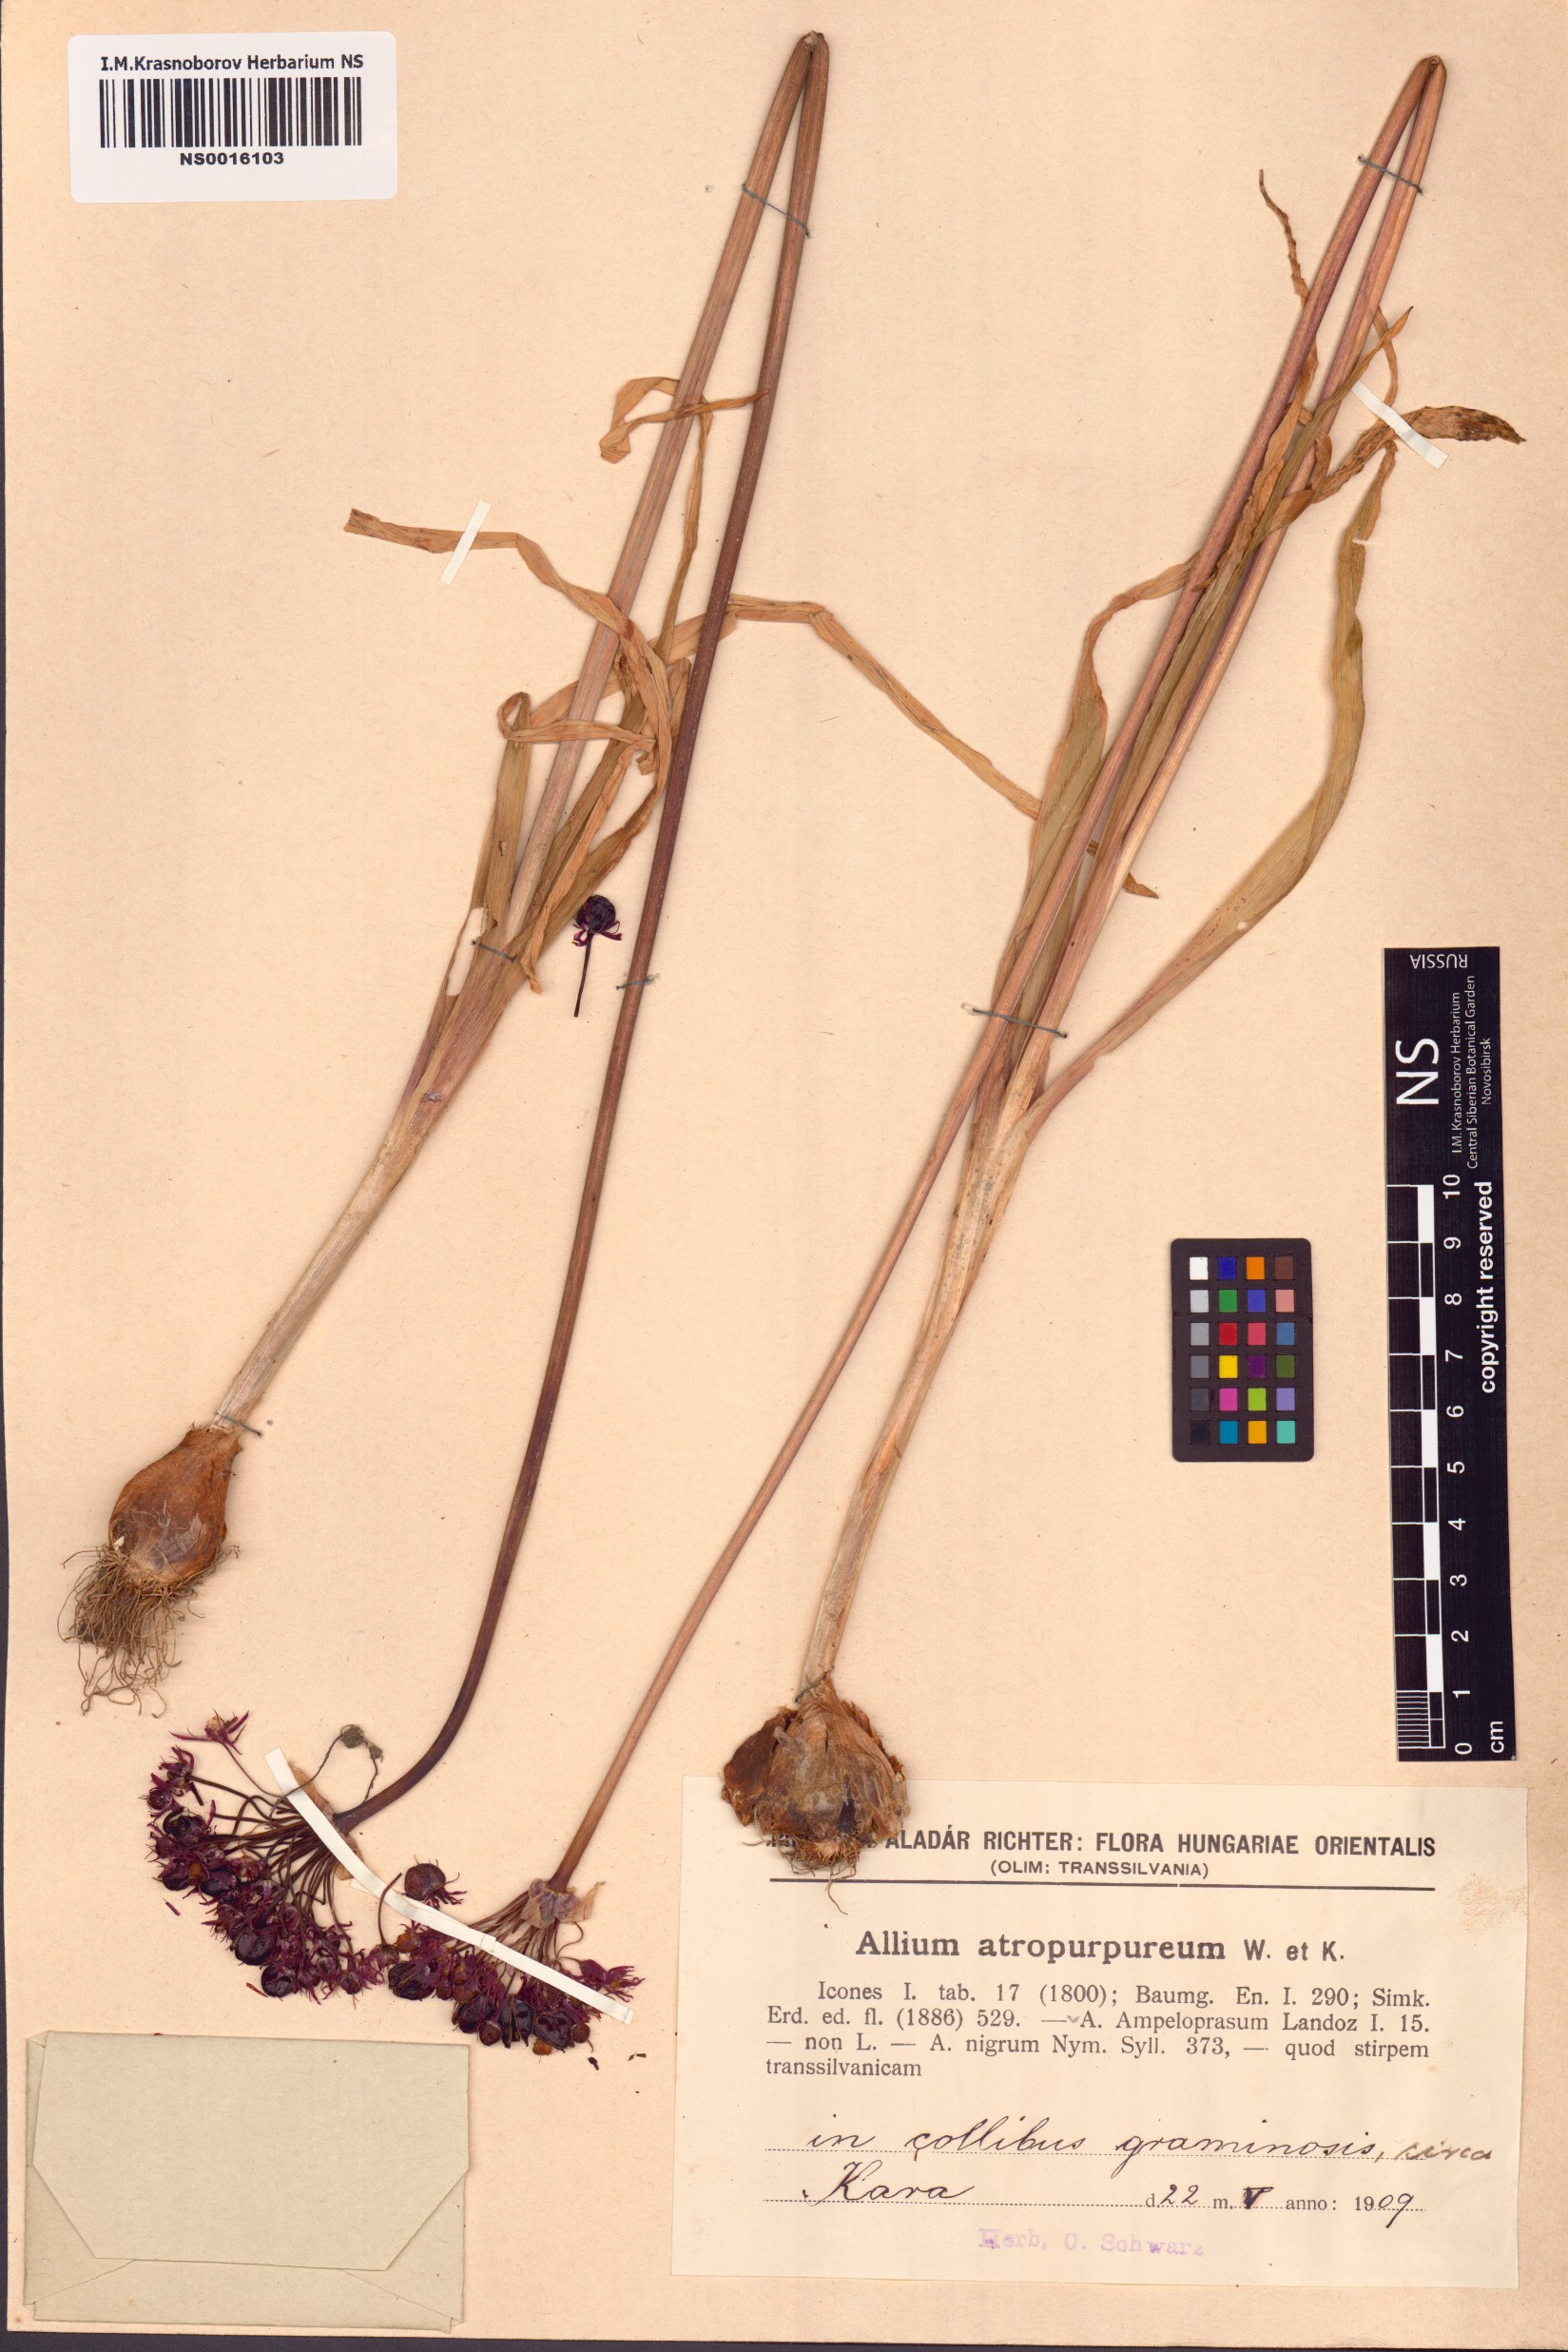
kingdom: Plantae
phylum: Tracheophyta
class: Liliopsida
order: Asparagales
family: Amaryllidaceae
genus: Allium
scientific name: Allium atropurpureum
